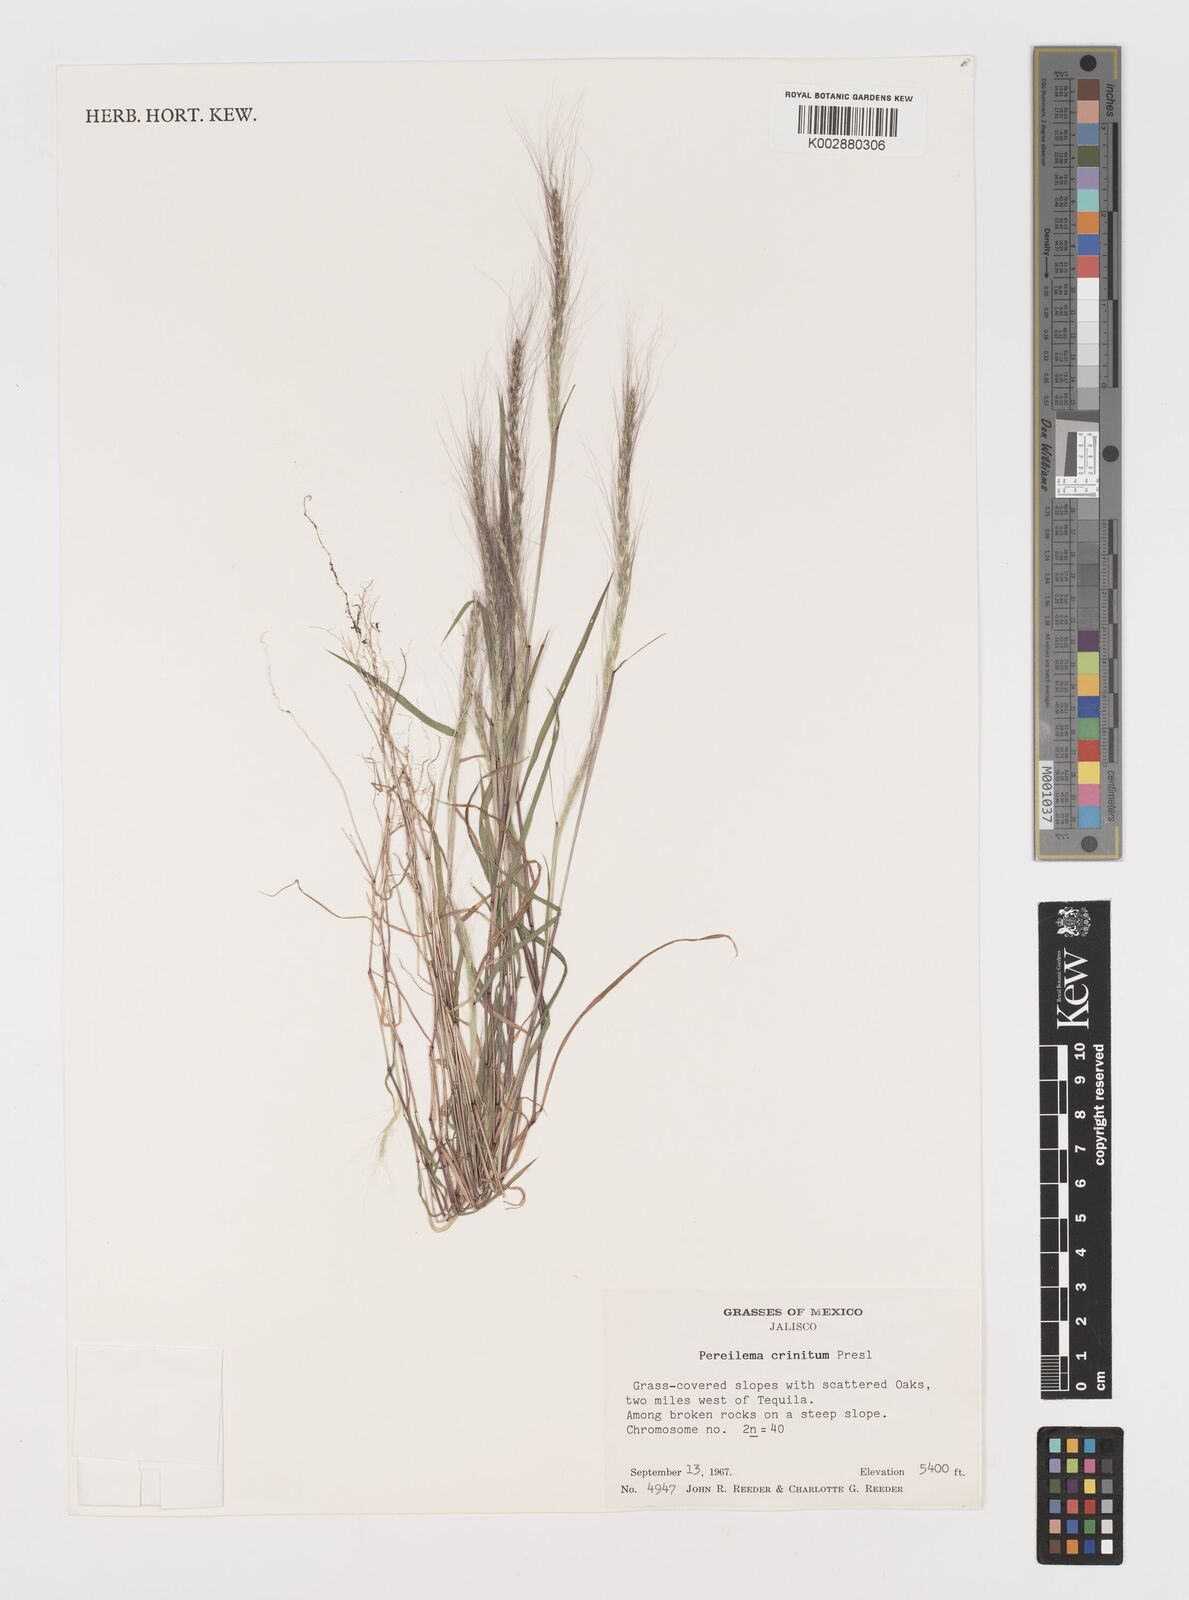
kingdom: Plantae
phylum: Tracheophyta
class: Liliopsida
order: Poales
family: Poaceae
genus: Muhlenbergia
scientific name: Muhlenbergia pereilema
